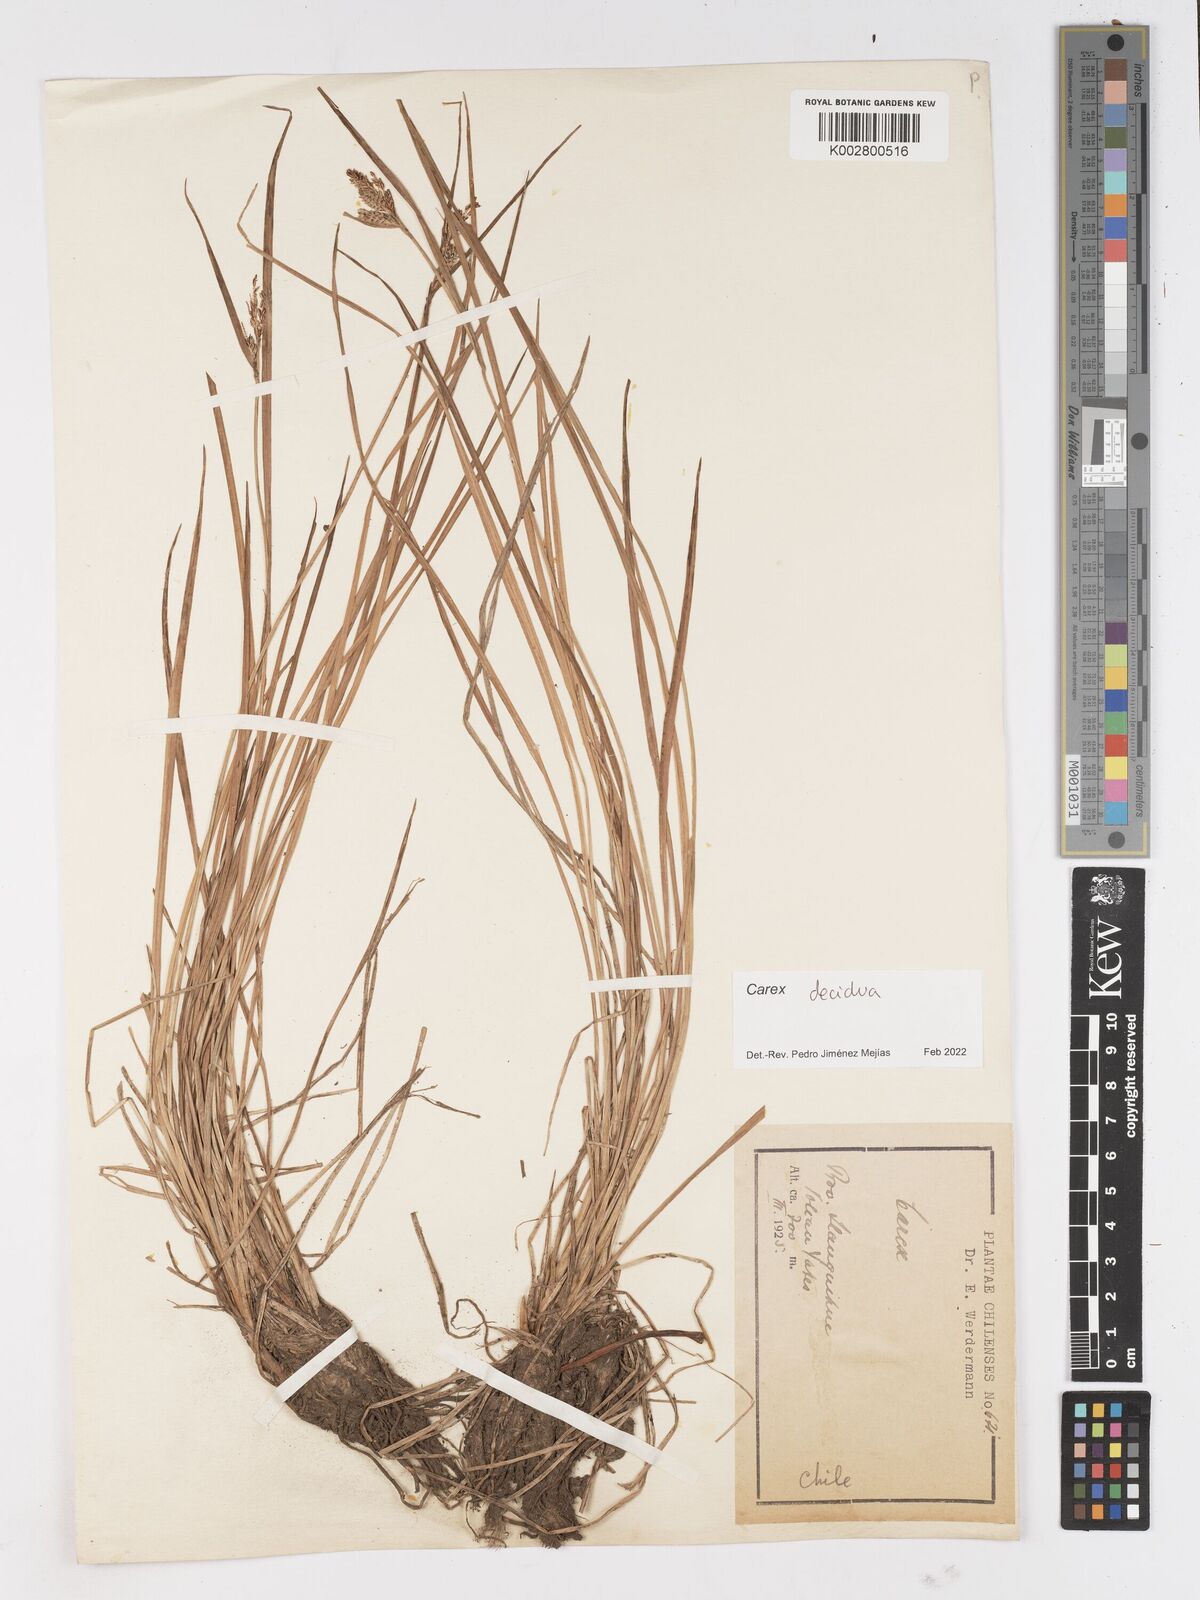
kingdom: Plantae
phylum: Tracheophyta
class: Liliopsida
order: Poales
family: Cyperaceae
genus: Carex
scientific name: Carex decidua
